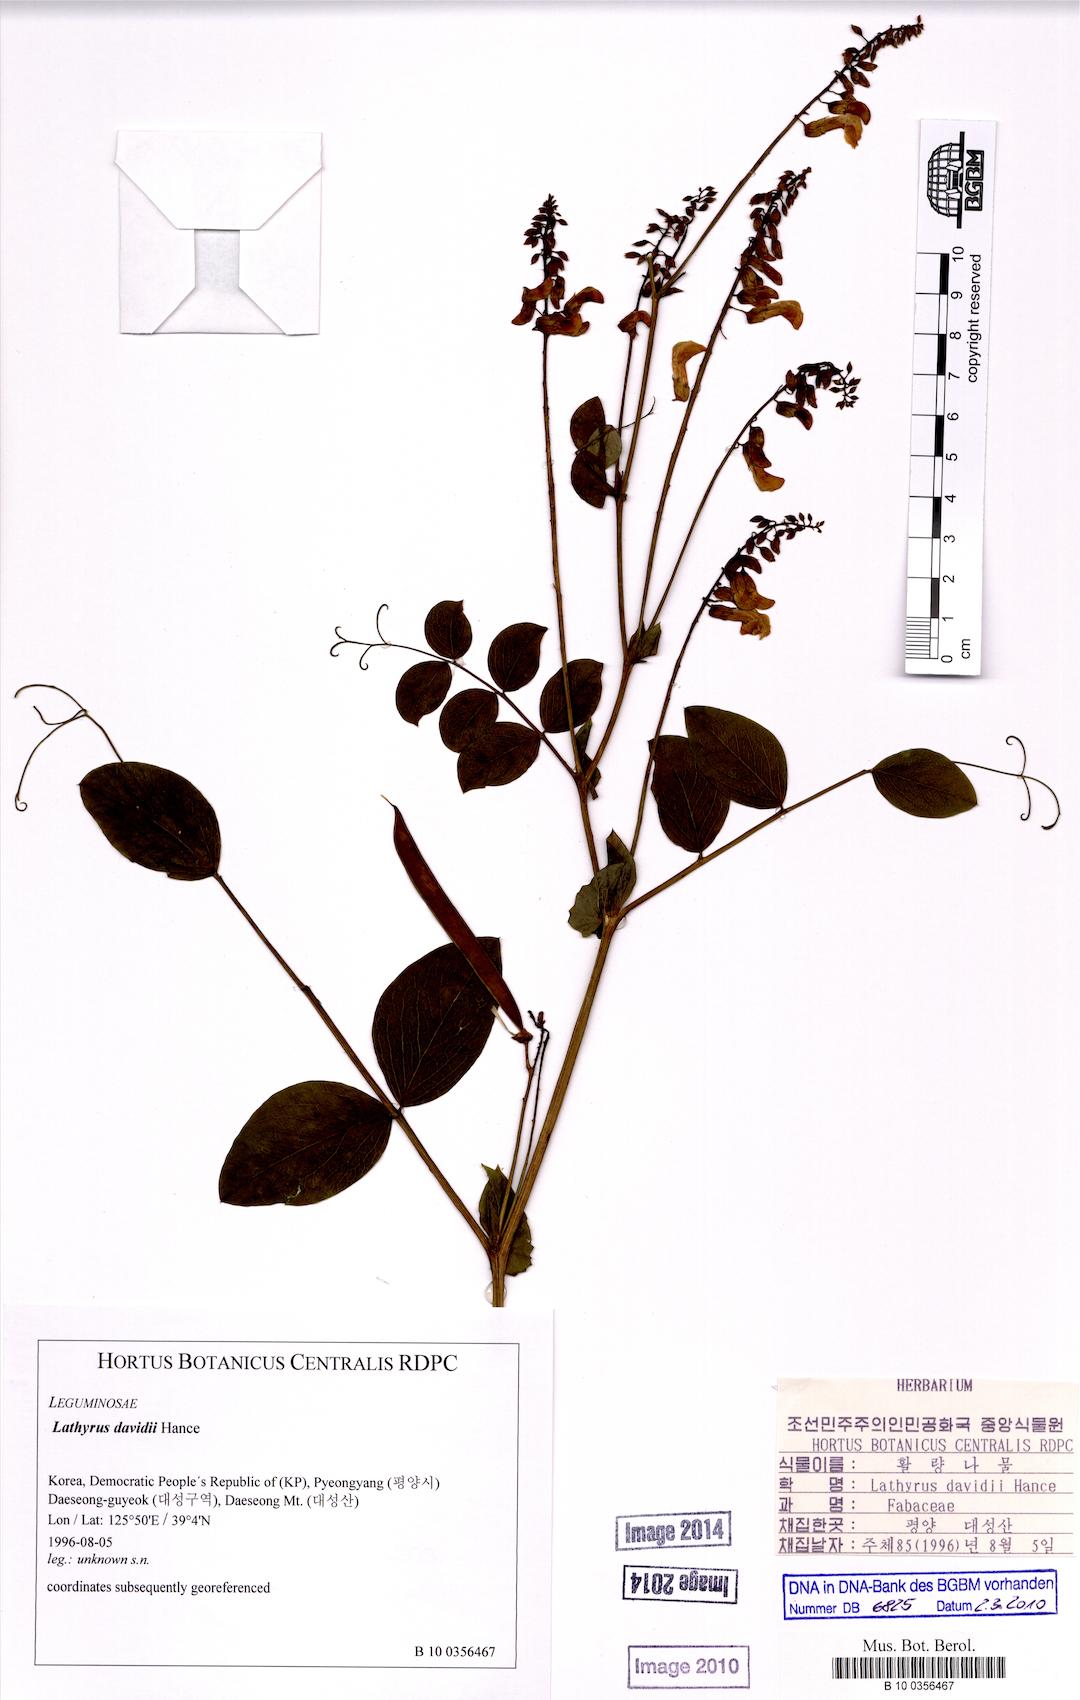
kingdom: Plantae
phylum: Tracheophyta
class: Magnoliopsida
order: Fabales
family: Fabaceae
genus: Lathyrus
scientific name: Lathyrus davidii
